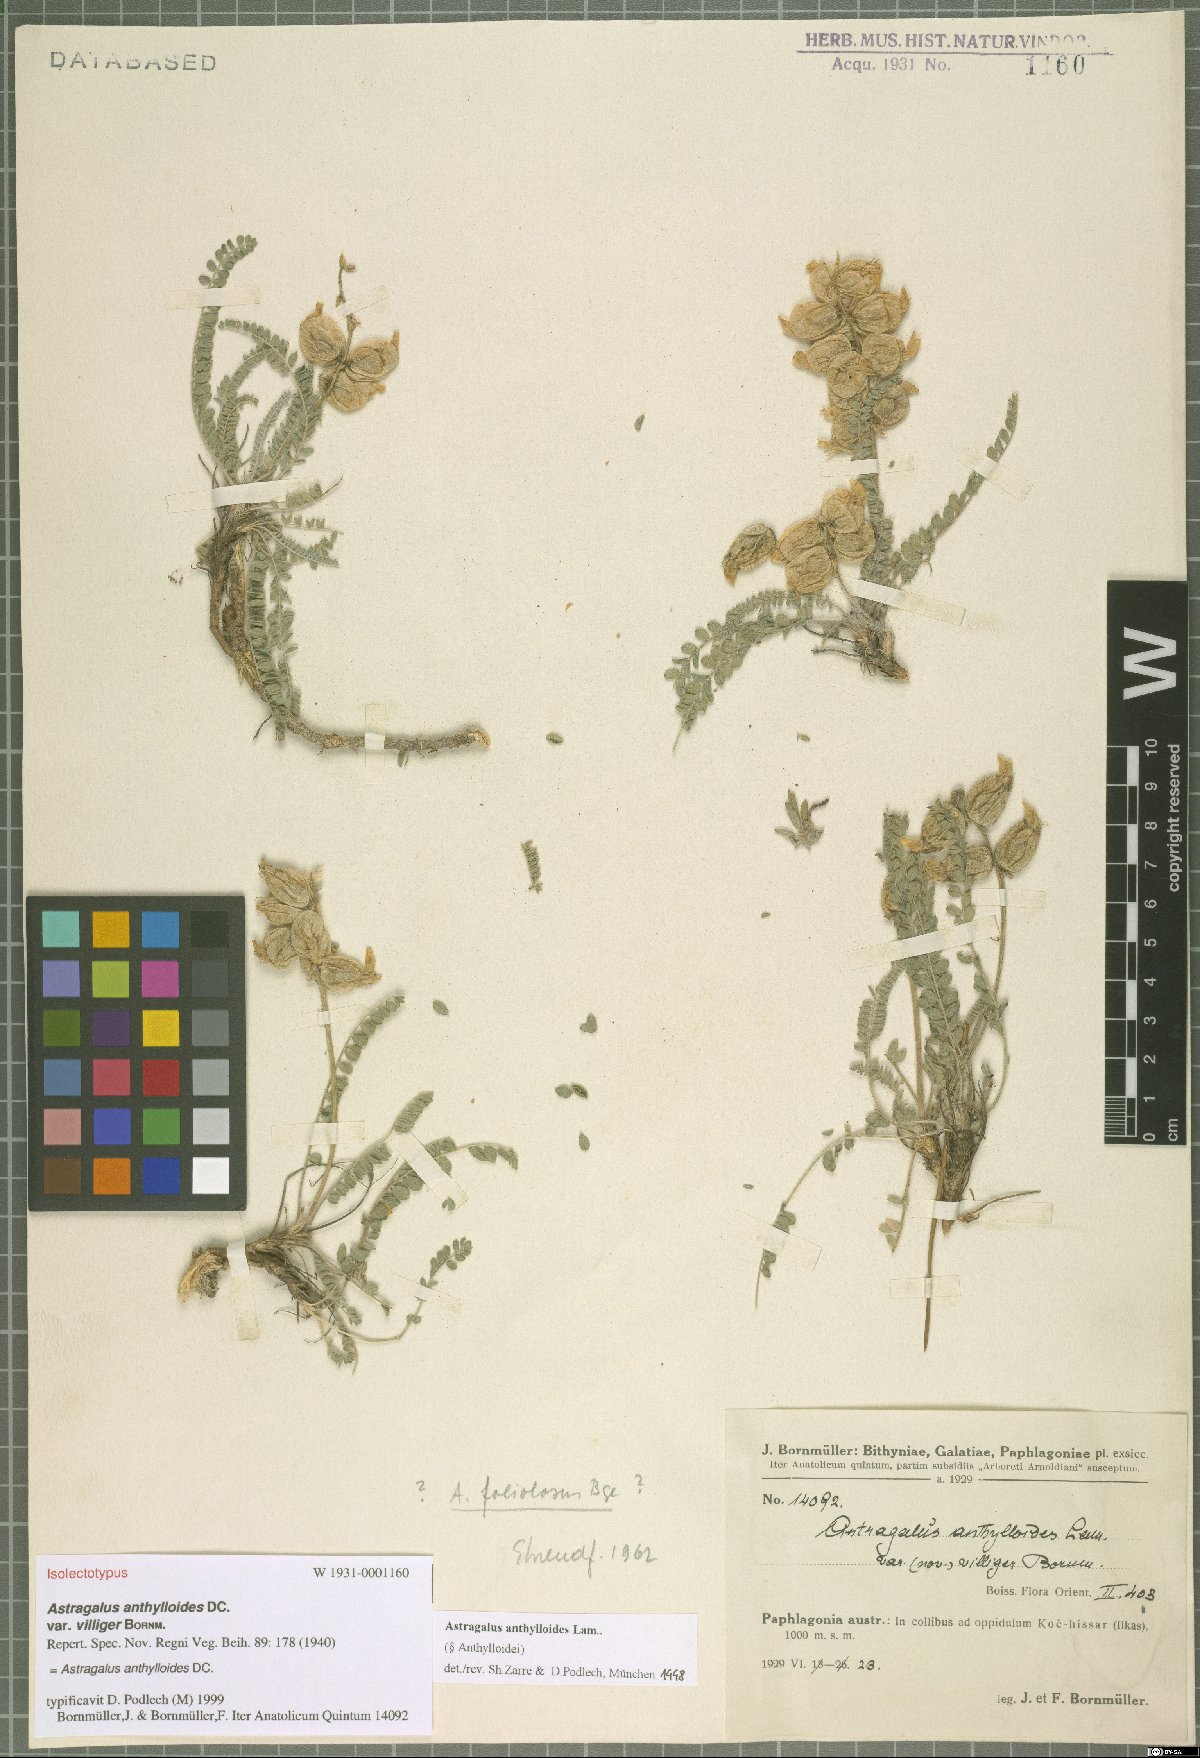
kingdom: Plantae
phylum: Tracheophyta
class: Magnoliopsida
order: Fabales
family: Fabaceae
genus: Astragalus
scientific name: Astragalus anthylloides
